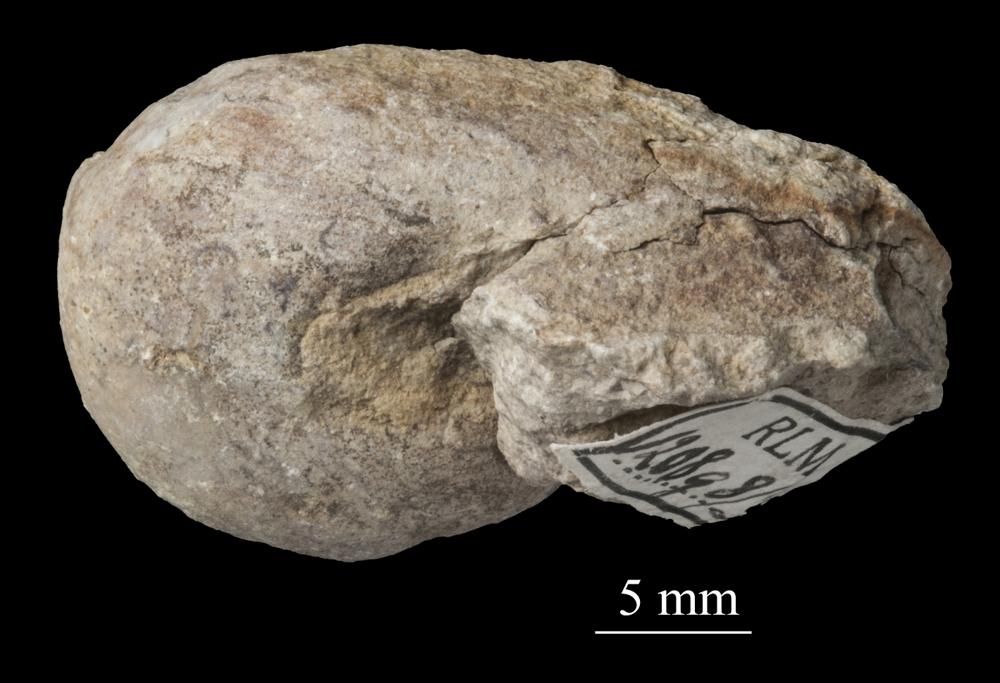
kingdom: Animalia
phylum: Mollusca
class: Gastropoda
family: Bellerophontidae
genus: Bellerophon
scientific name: Bellerophon
